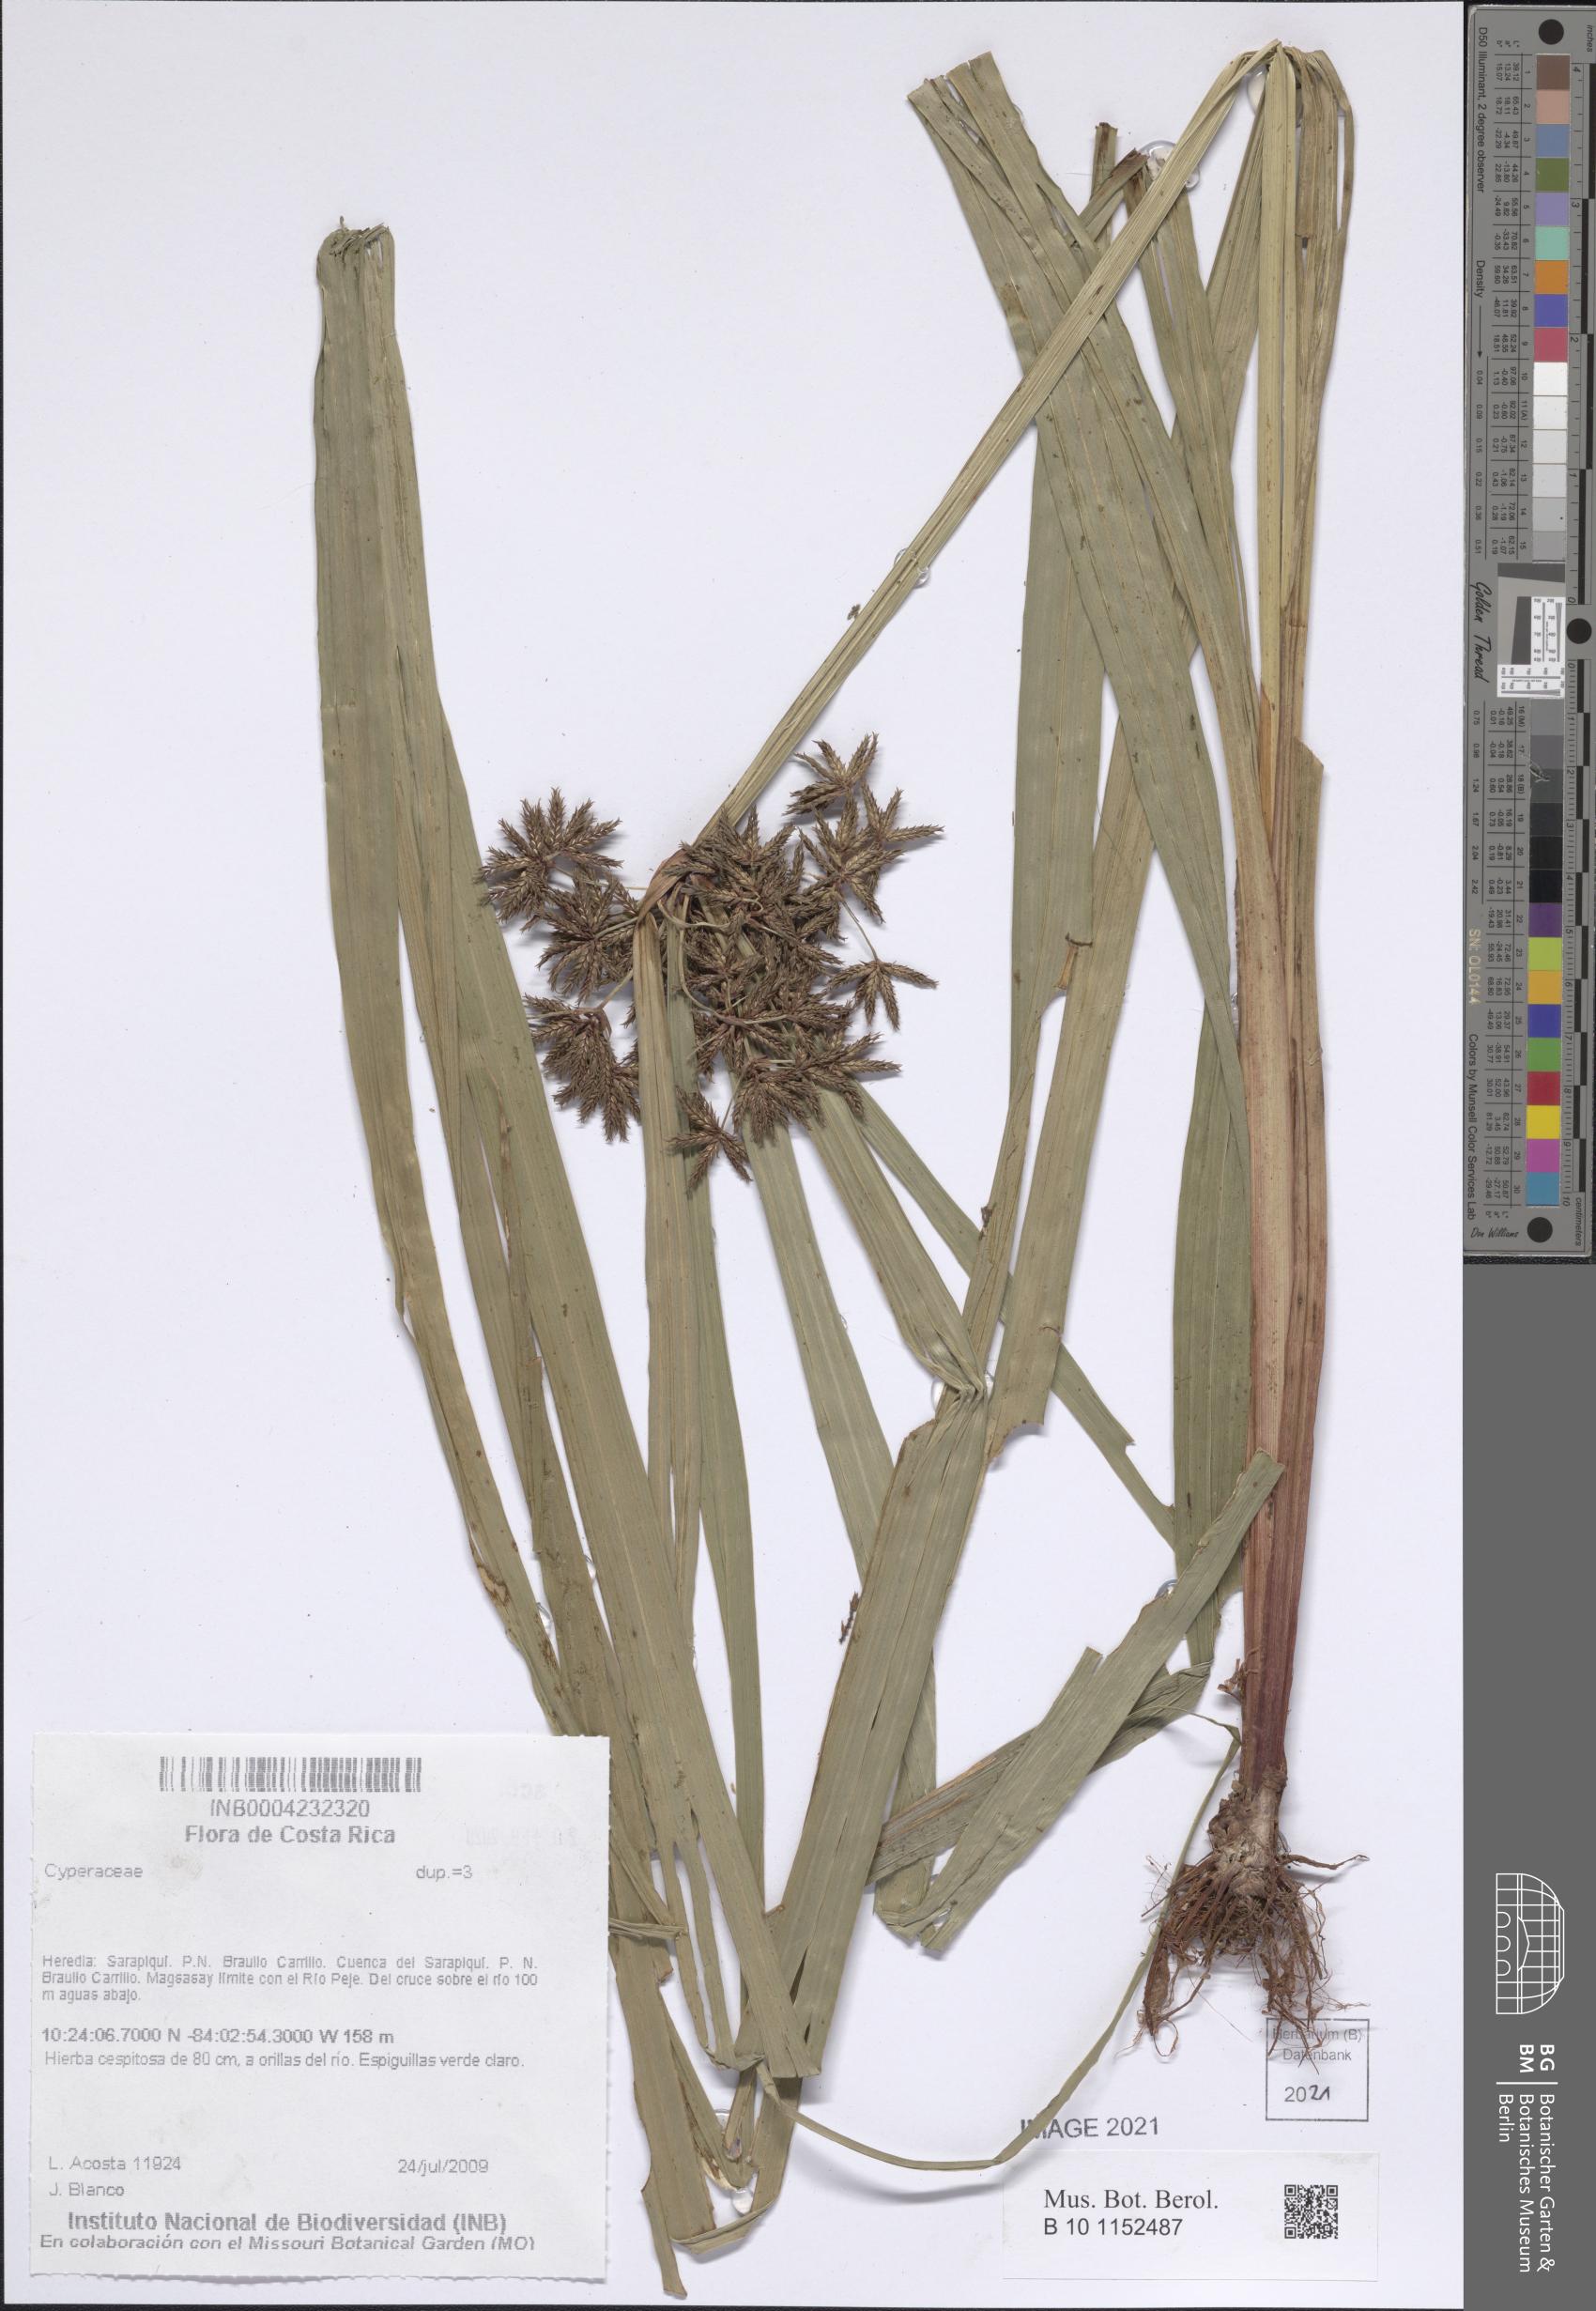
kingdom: Plantae
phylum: Tracheophyta
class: Liliopsida
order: Poales
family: Cyperaceae
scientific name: Cyperaceae
